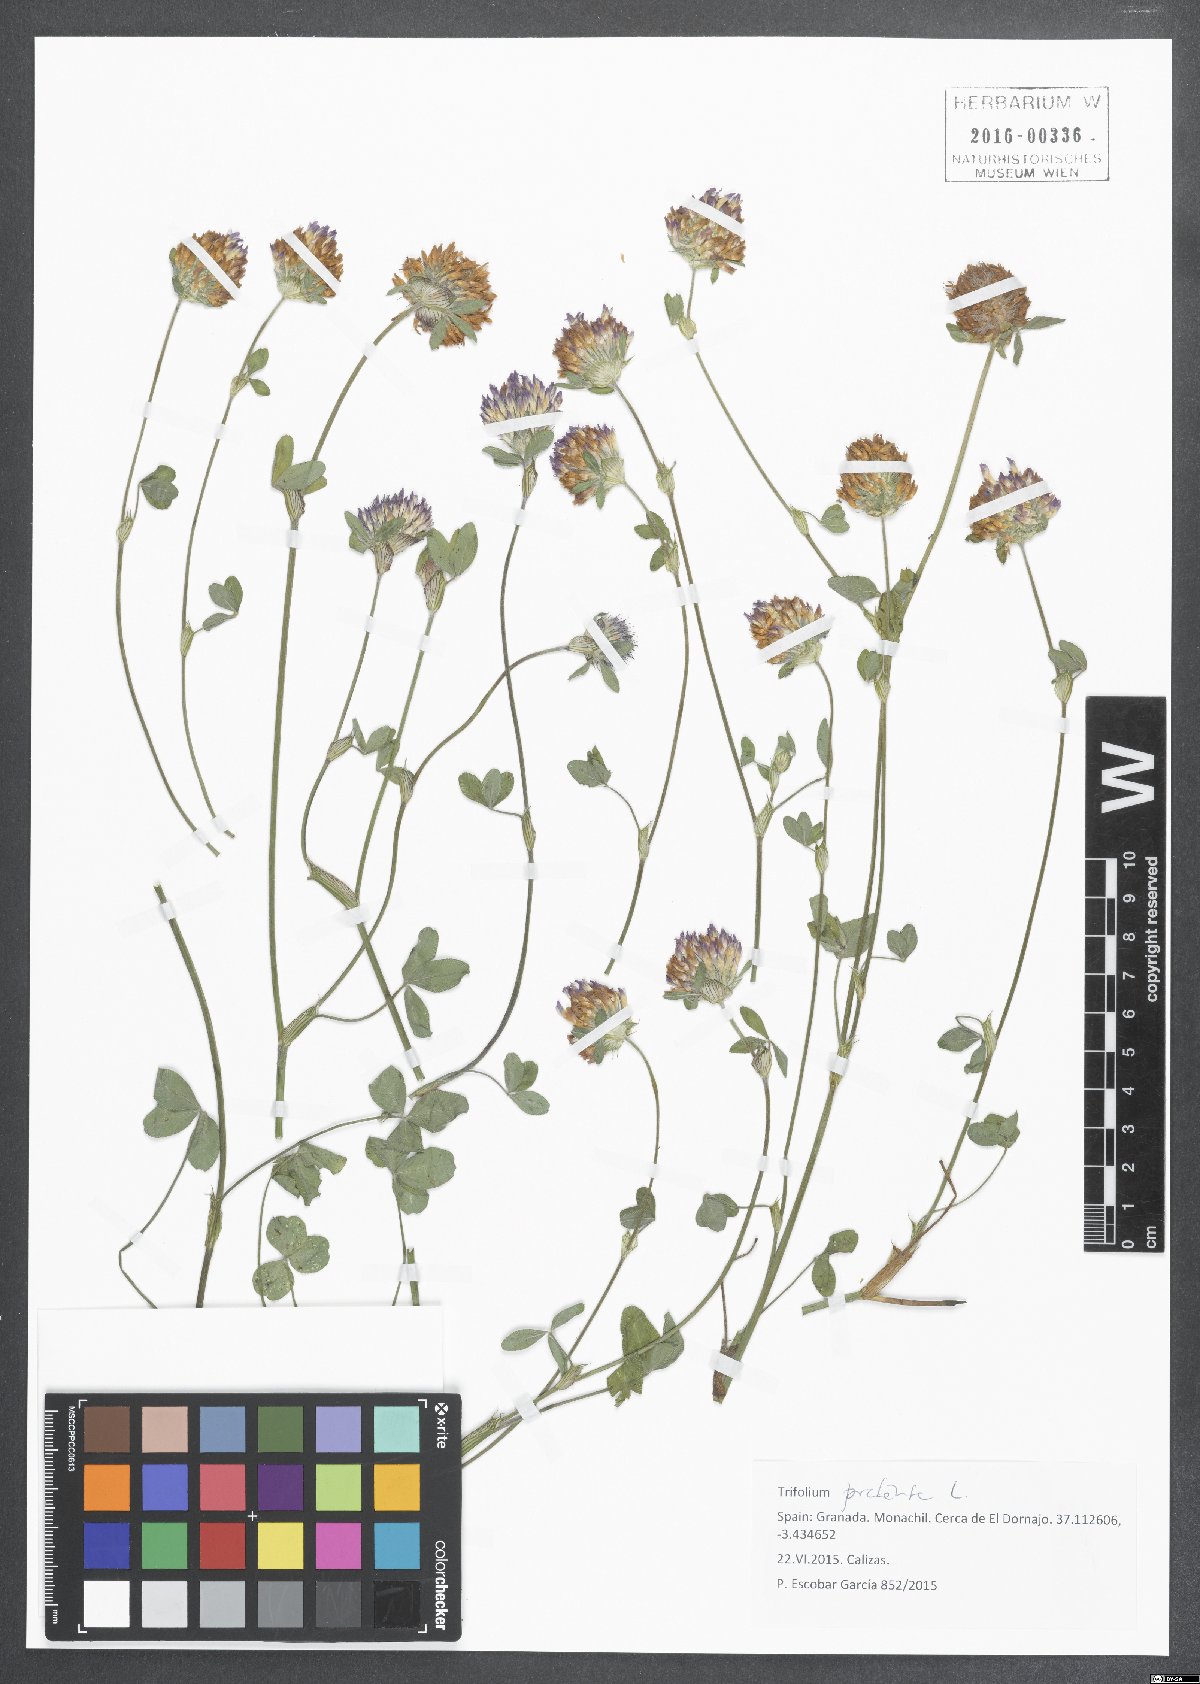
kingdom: Plantae
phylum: Tracheophyta
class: Magnoliopsida
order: Fabales
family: Fabaceae
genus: Trifolium
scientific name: Trifolium pratense
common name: Red clover
